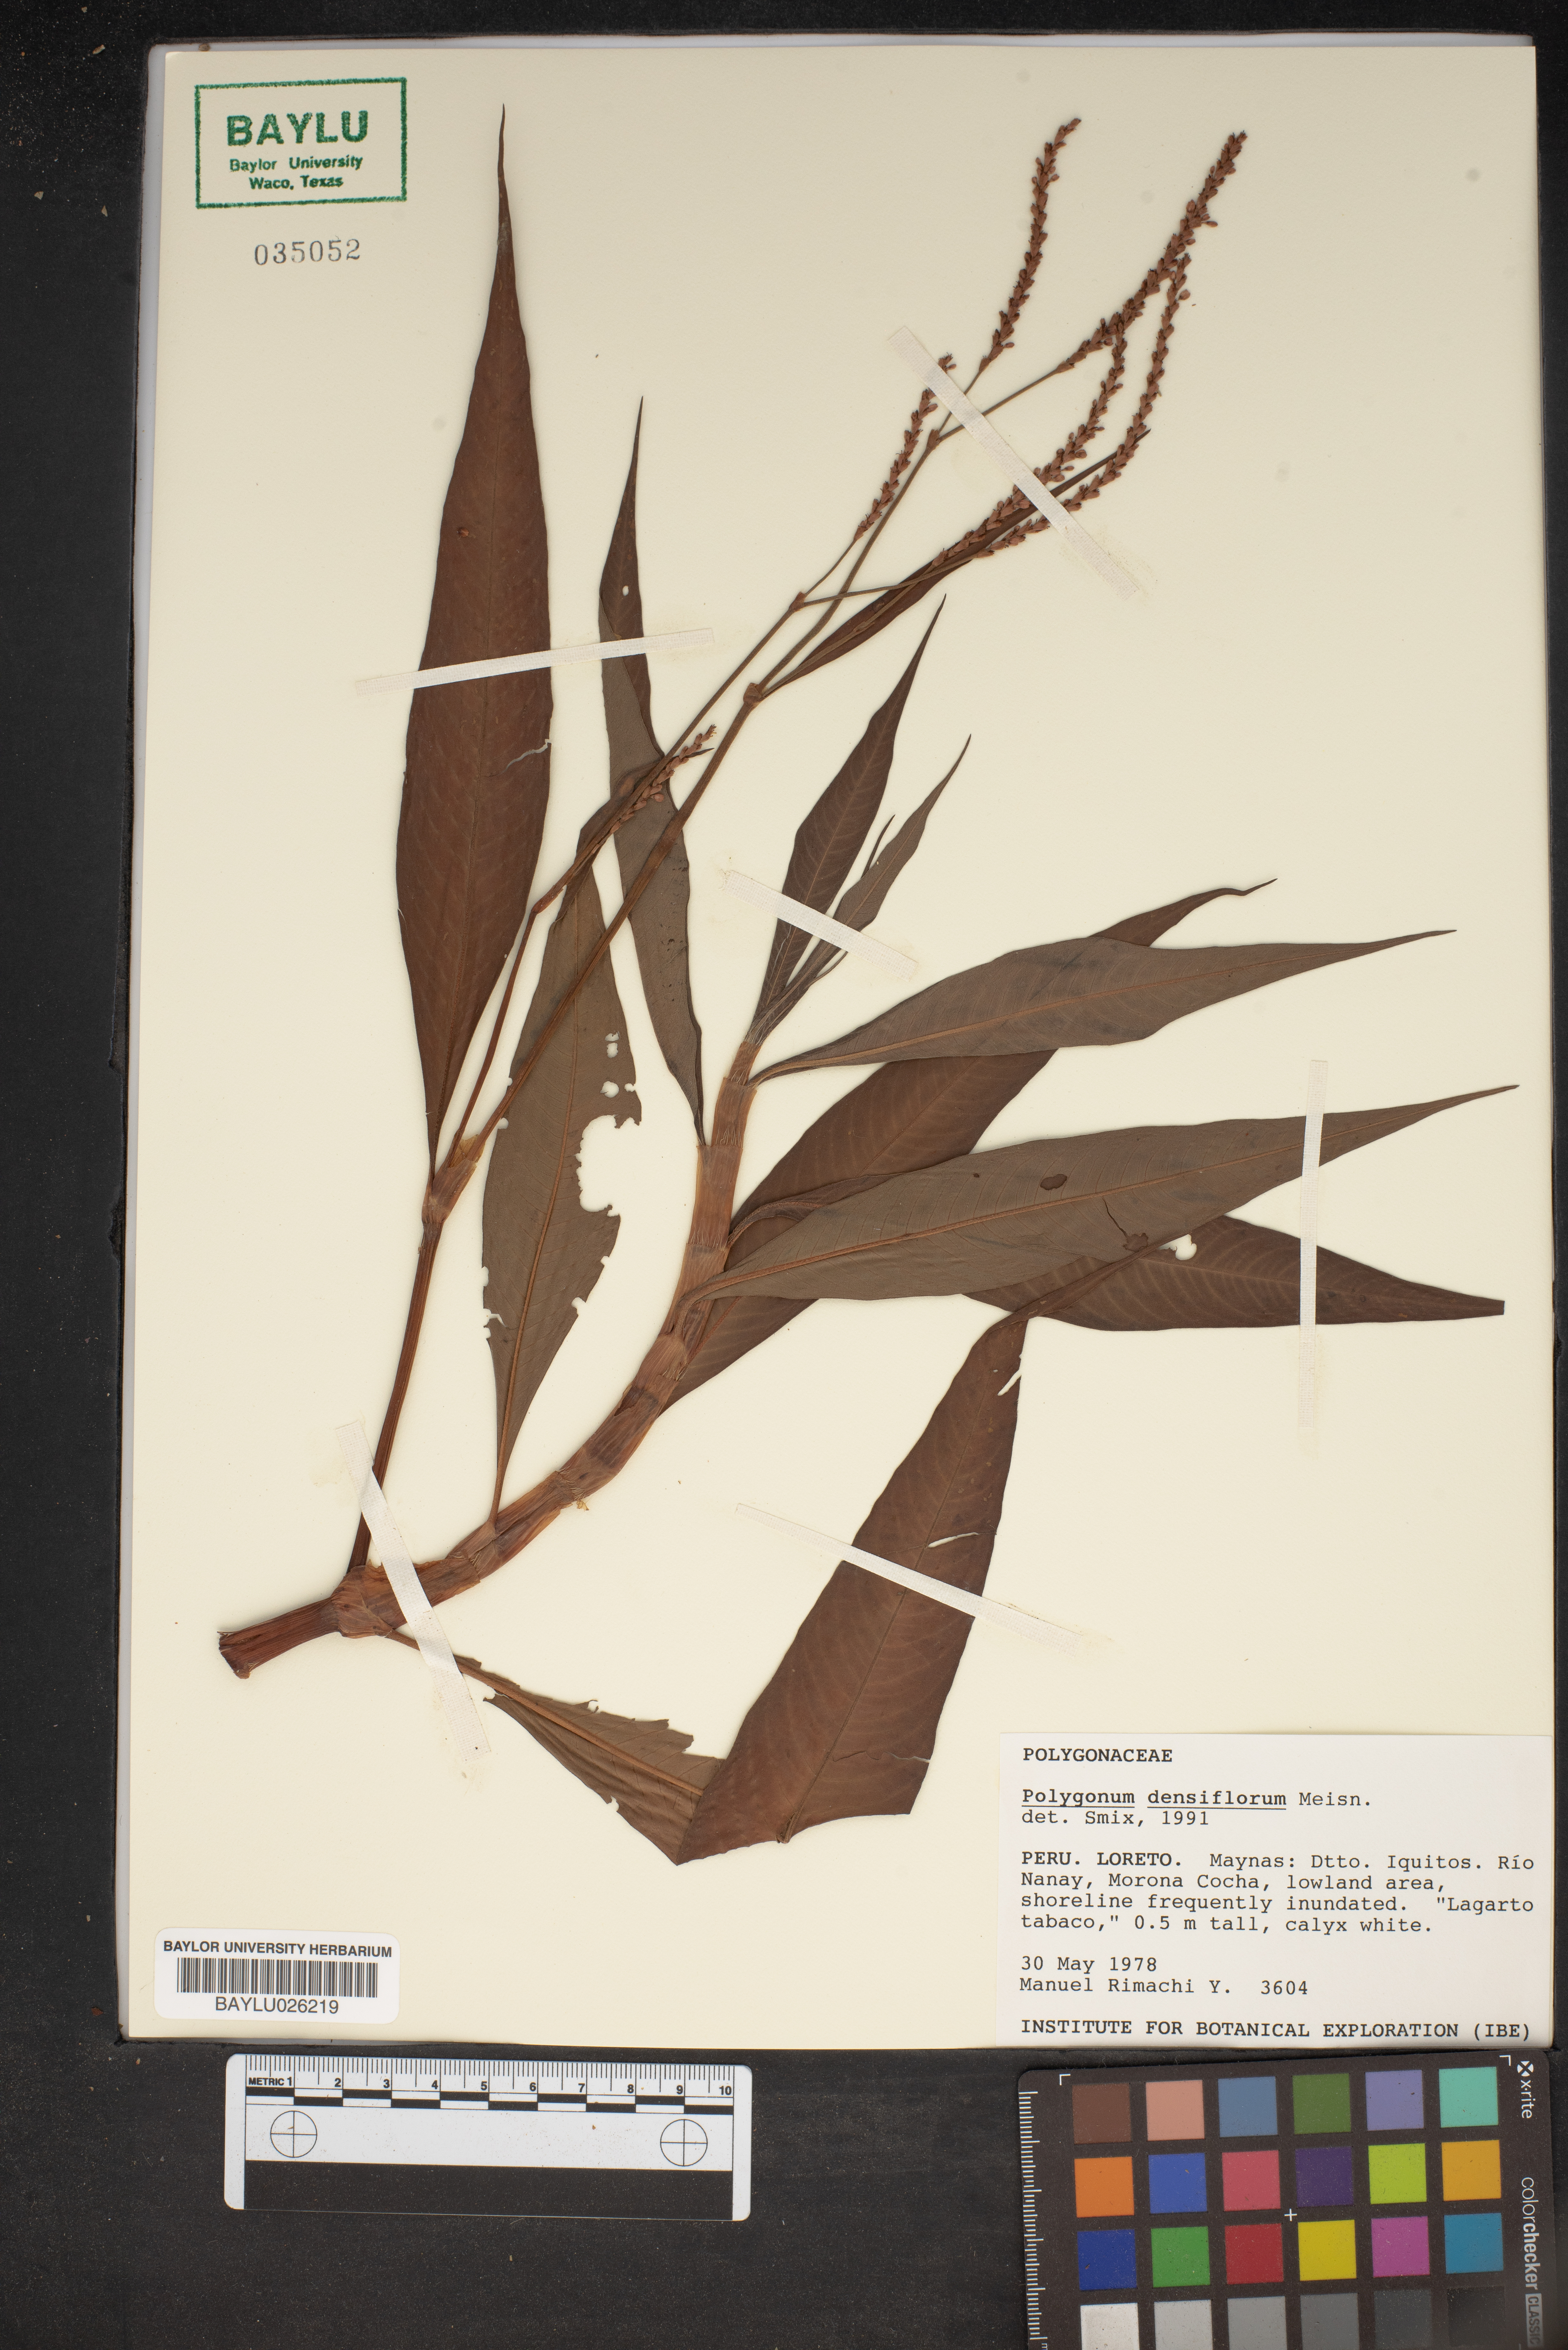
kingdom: Plantae
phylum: Tracheophyta
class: Magnoliopsida
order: Caryophyllales
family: Polygonaceae
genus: Persicaria
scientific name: Persicaria glabra
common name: Denseflower knotweed
